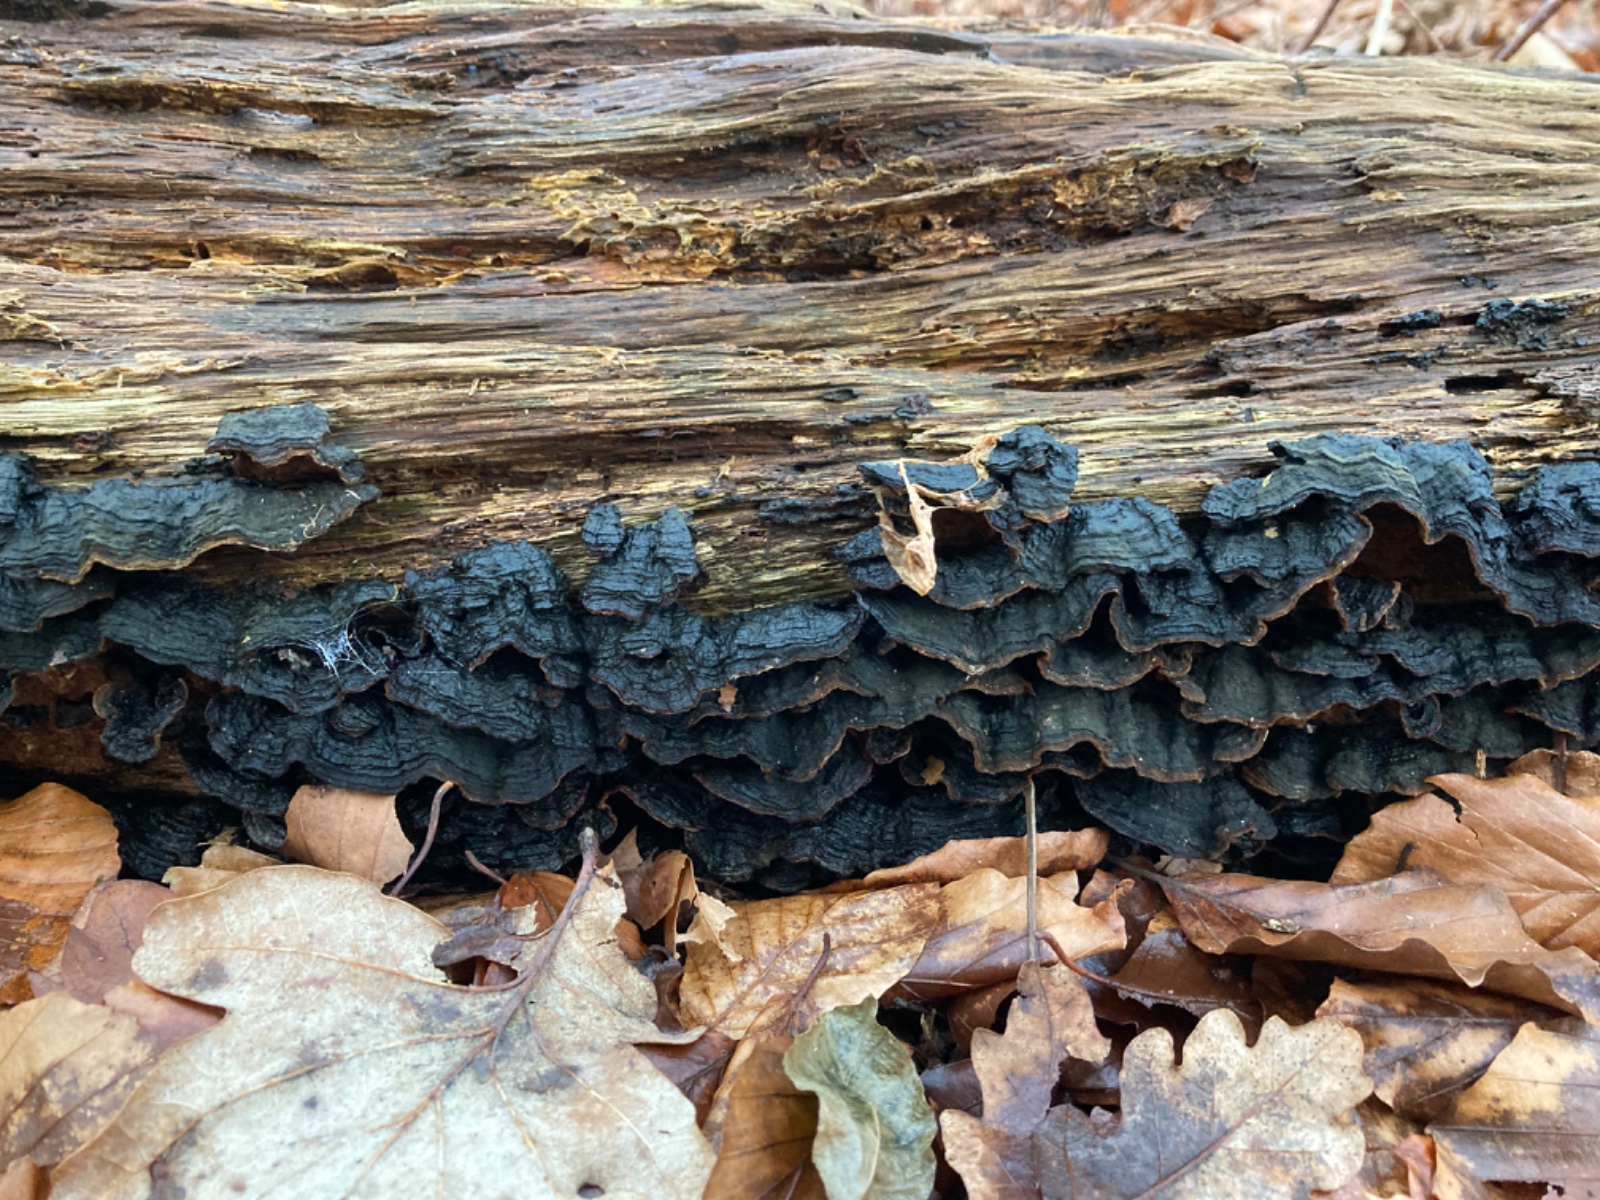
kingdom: Fungi
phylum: Basidiomycota
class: Agaricomycetes
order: Hymenochaetales
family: Hymenochaetaceae
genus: Hymenochaete
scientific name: Hymenochaete rubiginosa
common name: stiv ruslædersvamp
